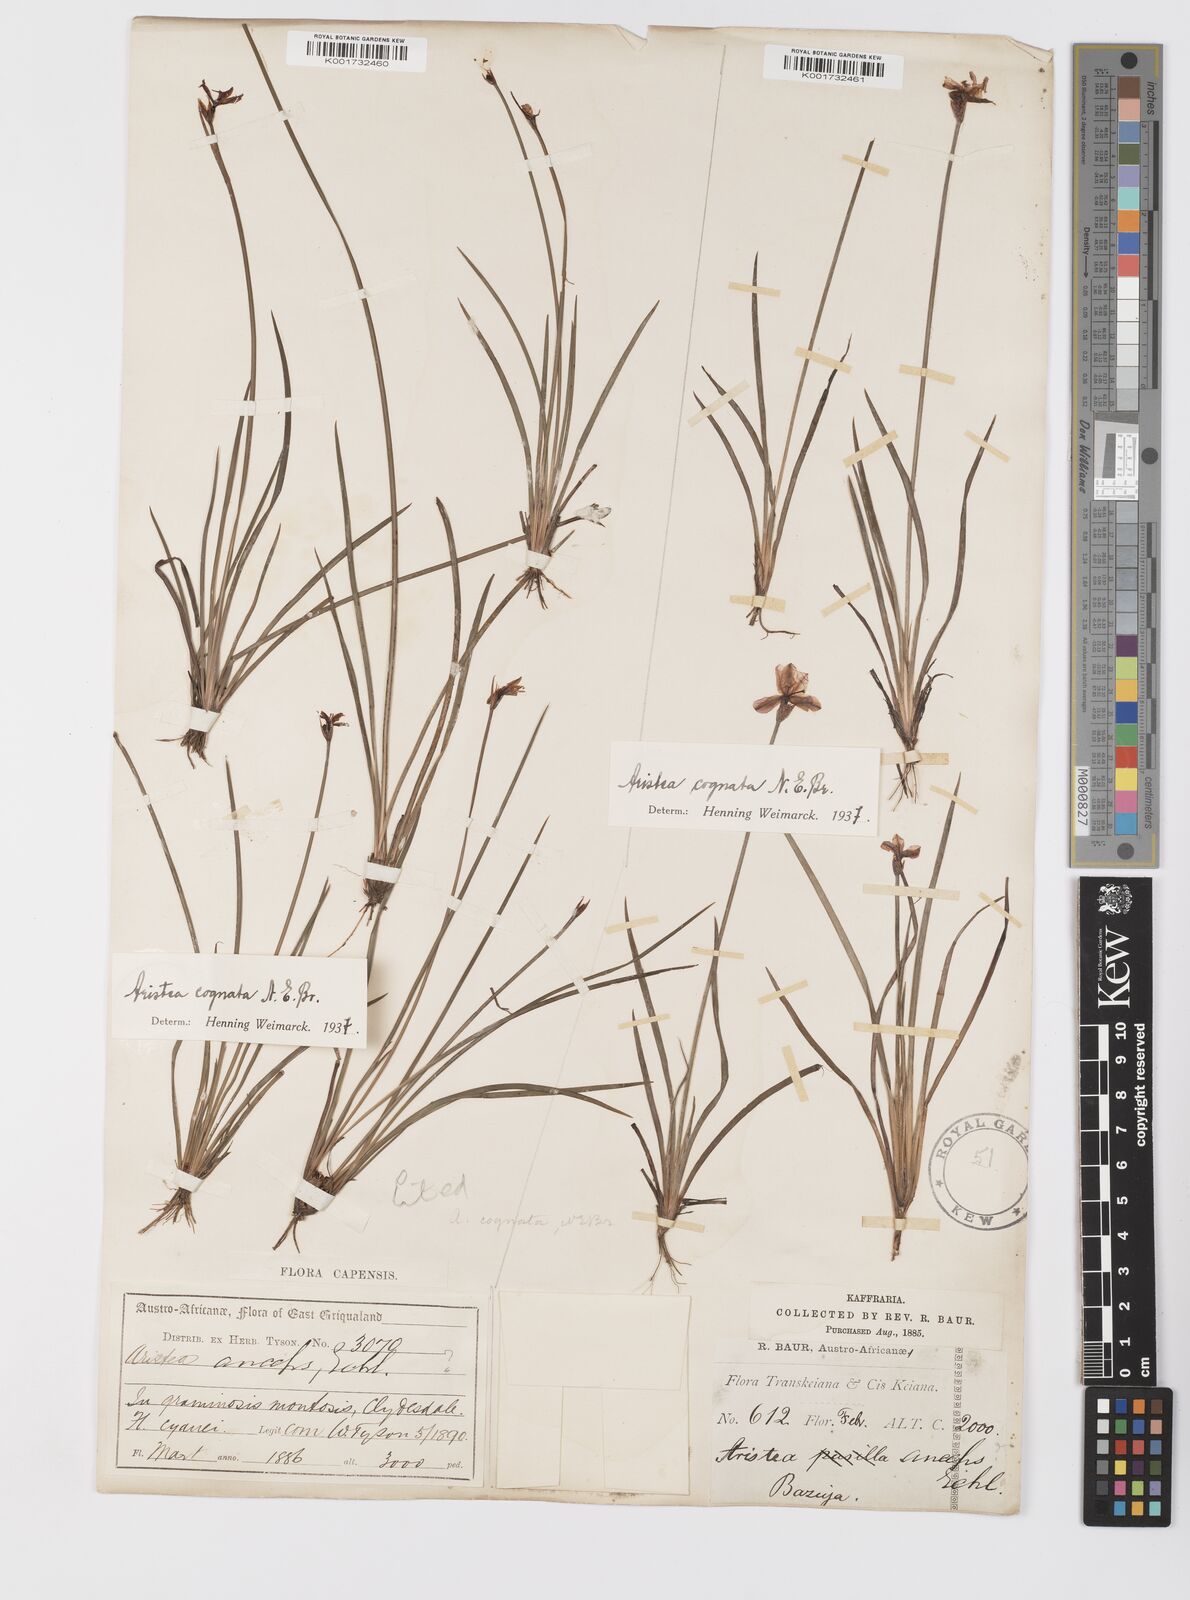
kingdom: Plantae
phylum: Tracheophyta
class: Liliopsida
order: Asparagales
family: Iridaceae
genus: Aristea
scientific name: Aristea abyssinica
